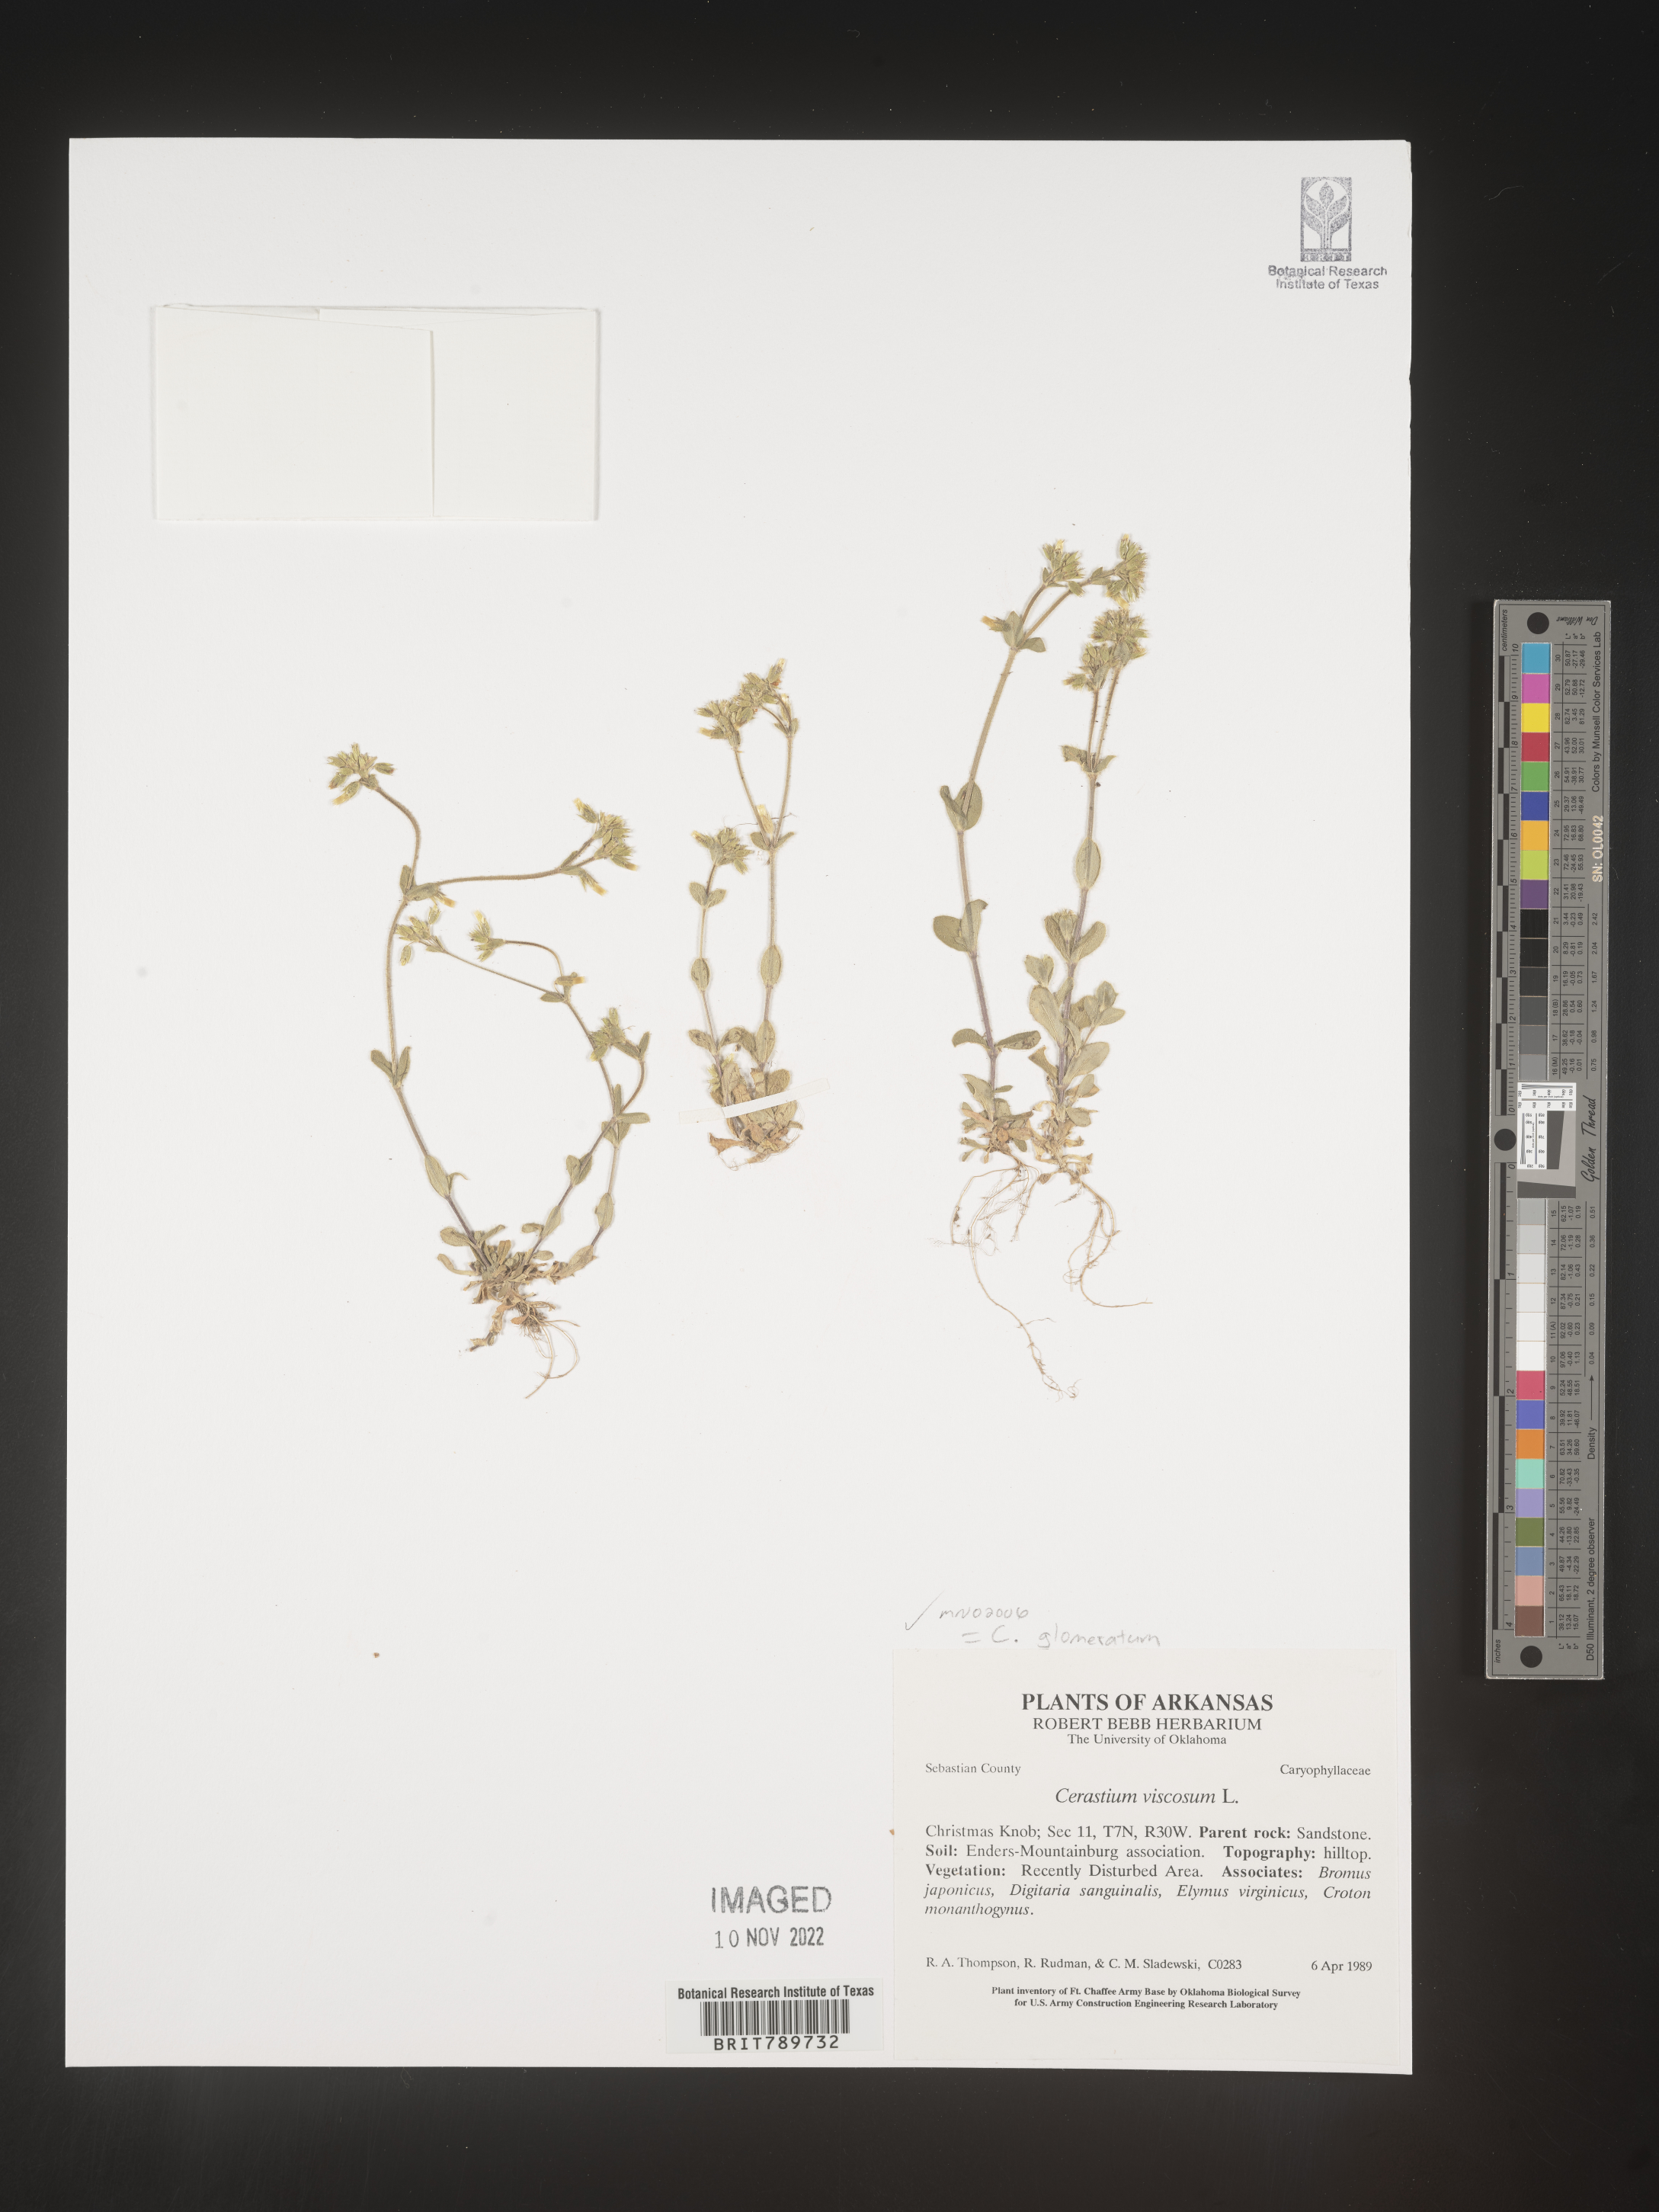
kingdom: Plantae
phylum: Tracheophyta
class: Magnoliopsida
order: Caryophyllales
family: Caryophyllaceae
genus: Cerastium
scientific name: Cerastium glomeratum
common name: Sticky chickweed
